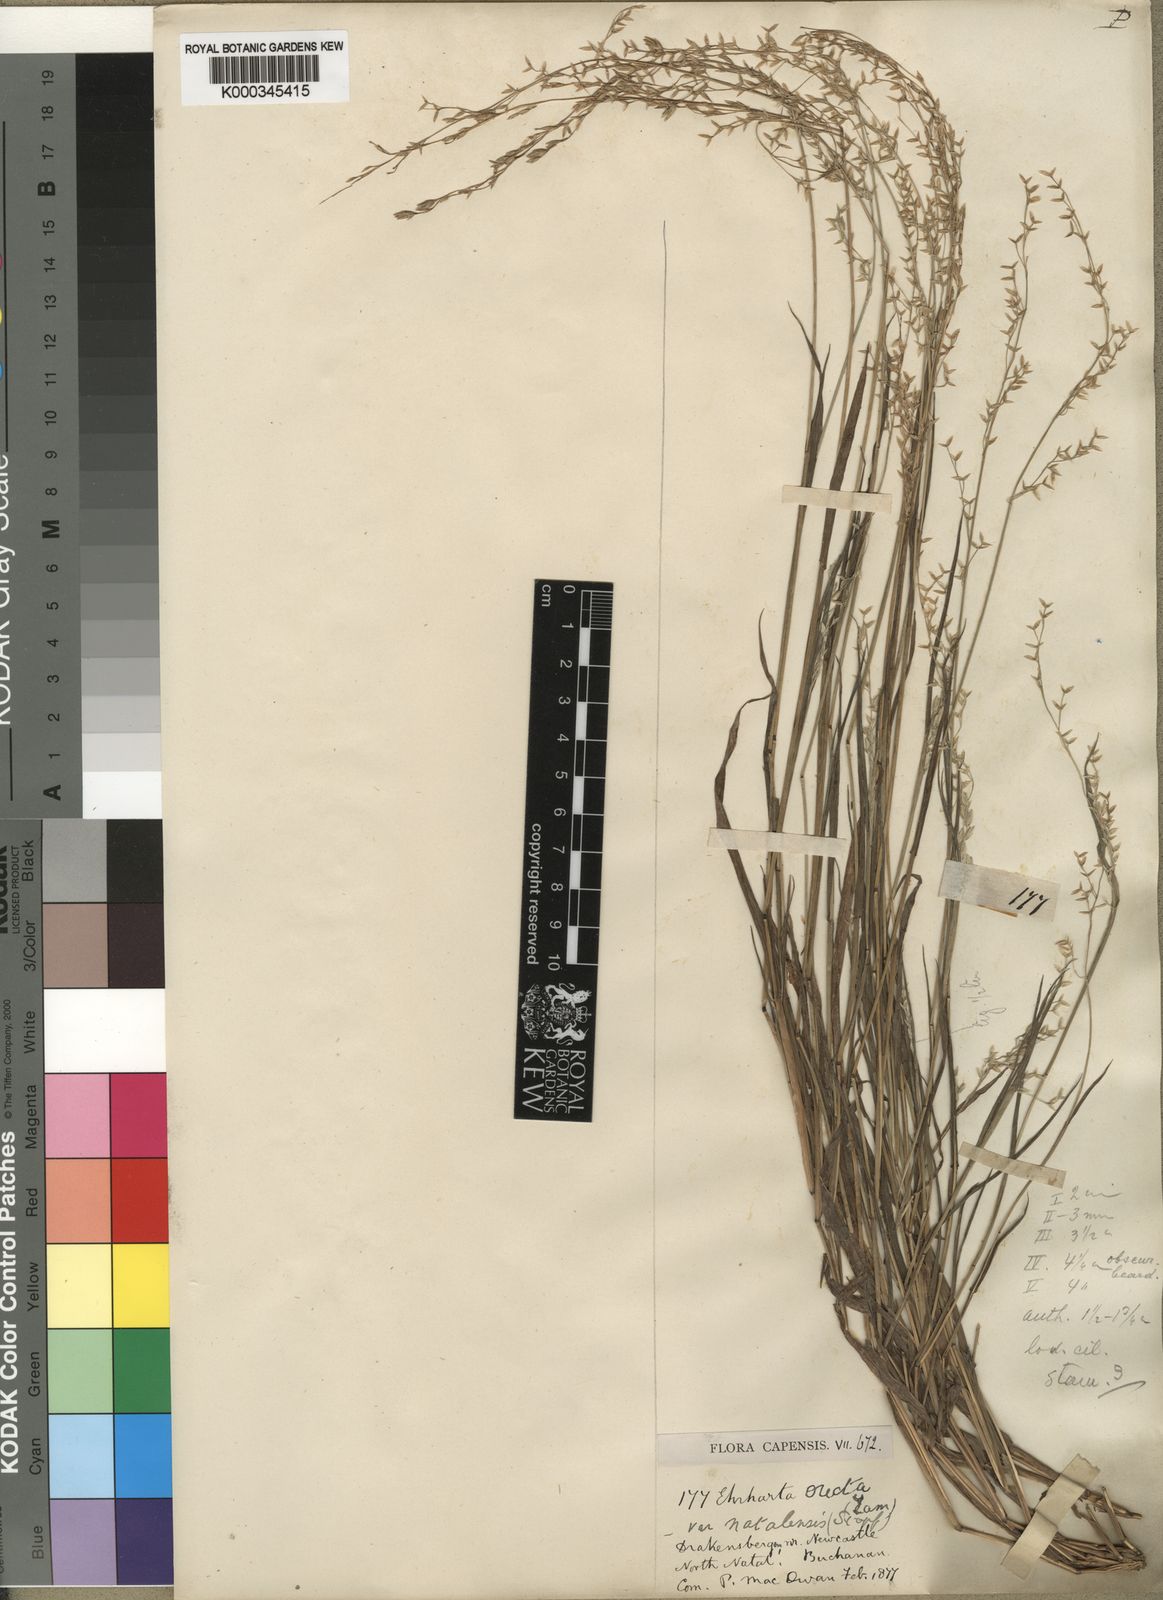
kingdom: Plantae
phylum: Tracheophyta
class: Liliopsida
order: Poales
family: Poaceae
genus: Ehrharta
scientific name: Ehrharta erecta
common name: Panic veldtgrass
